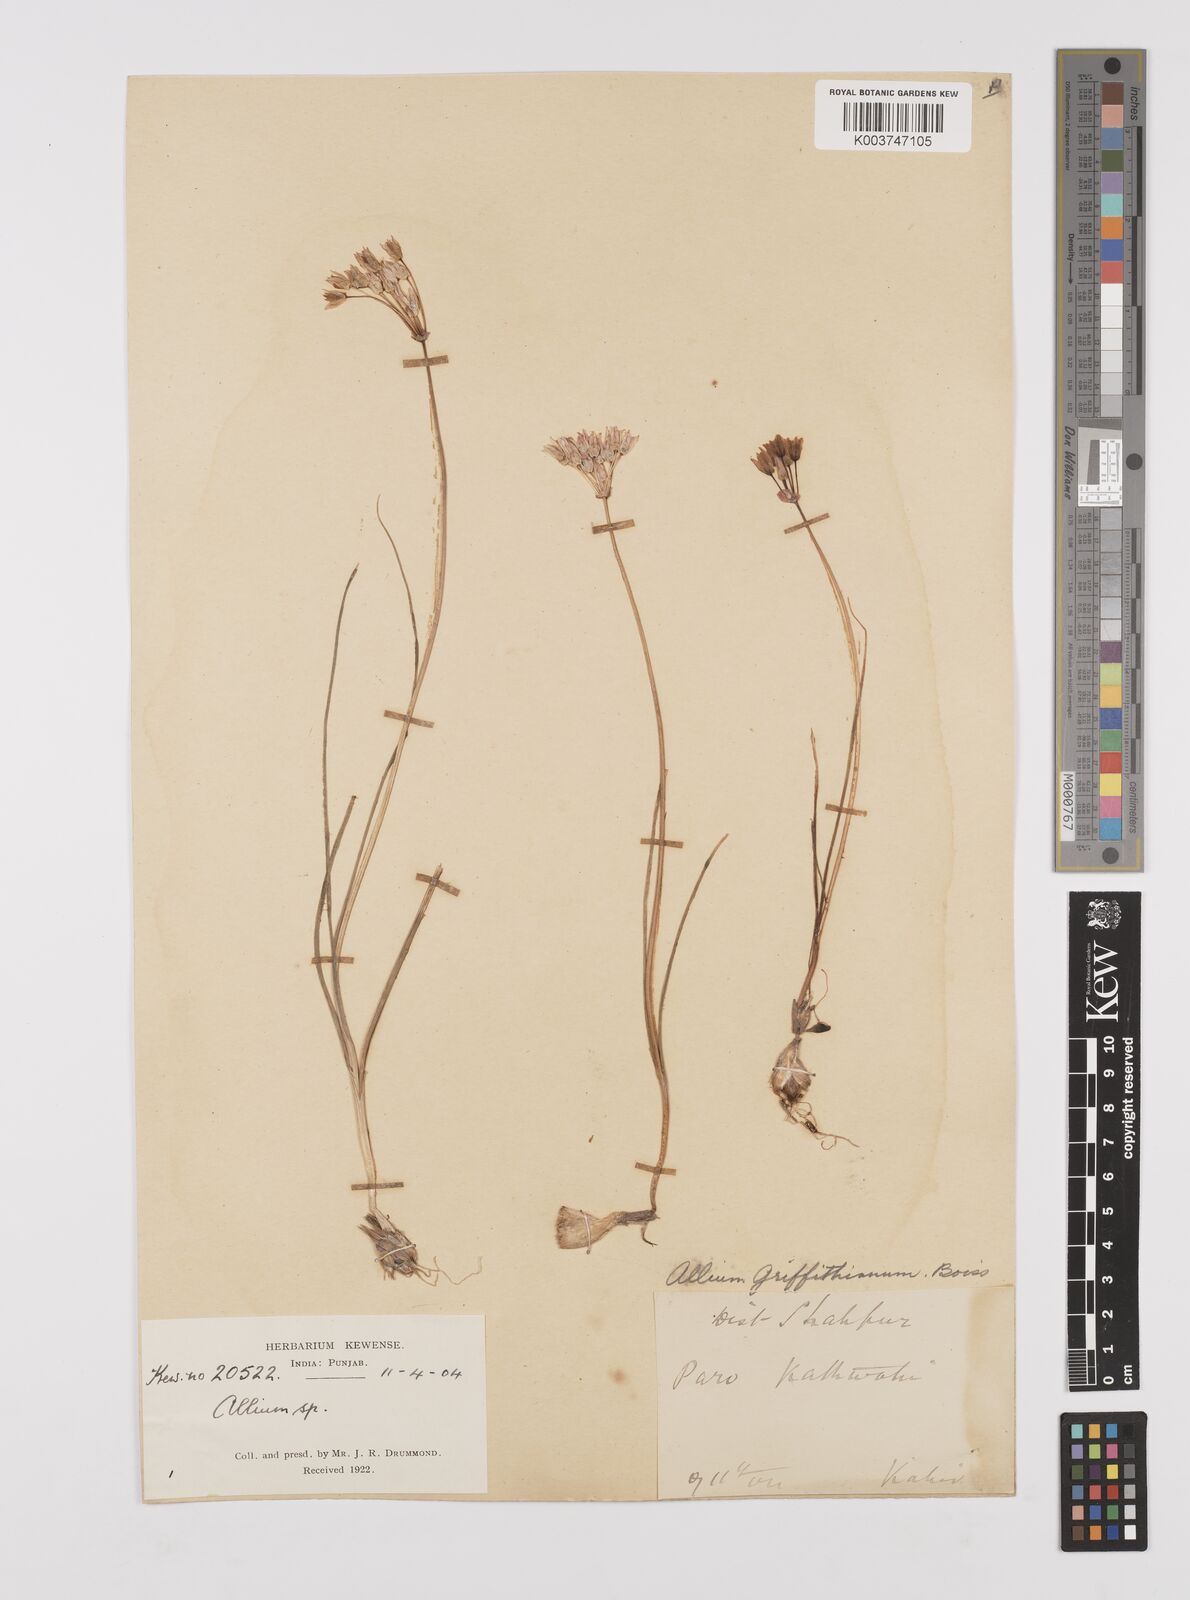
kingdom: Plantae
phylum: Tracheophyta
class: Liliopsida
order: Asparagales
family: Amaryllidaceae
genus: Allium
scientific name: Allium griffithianum
